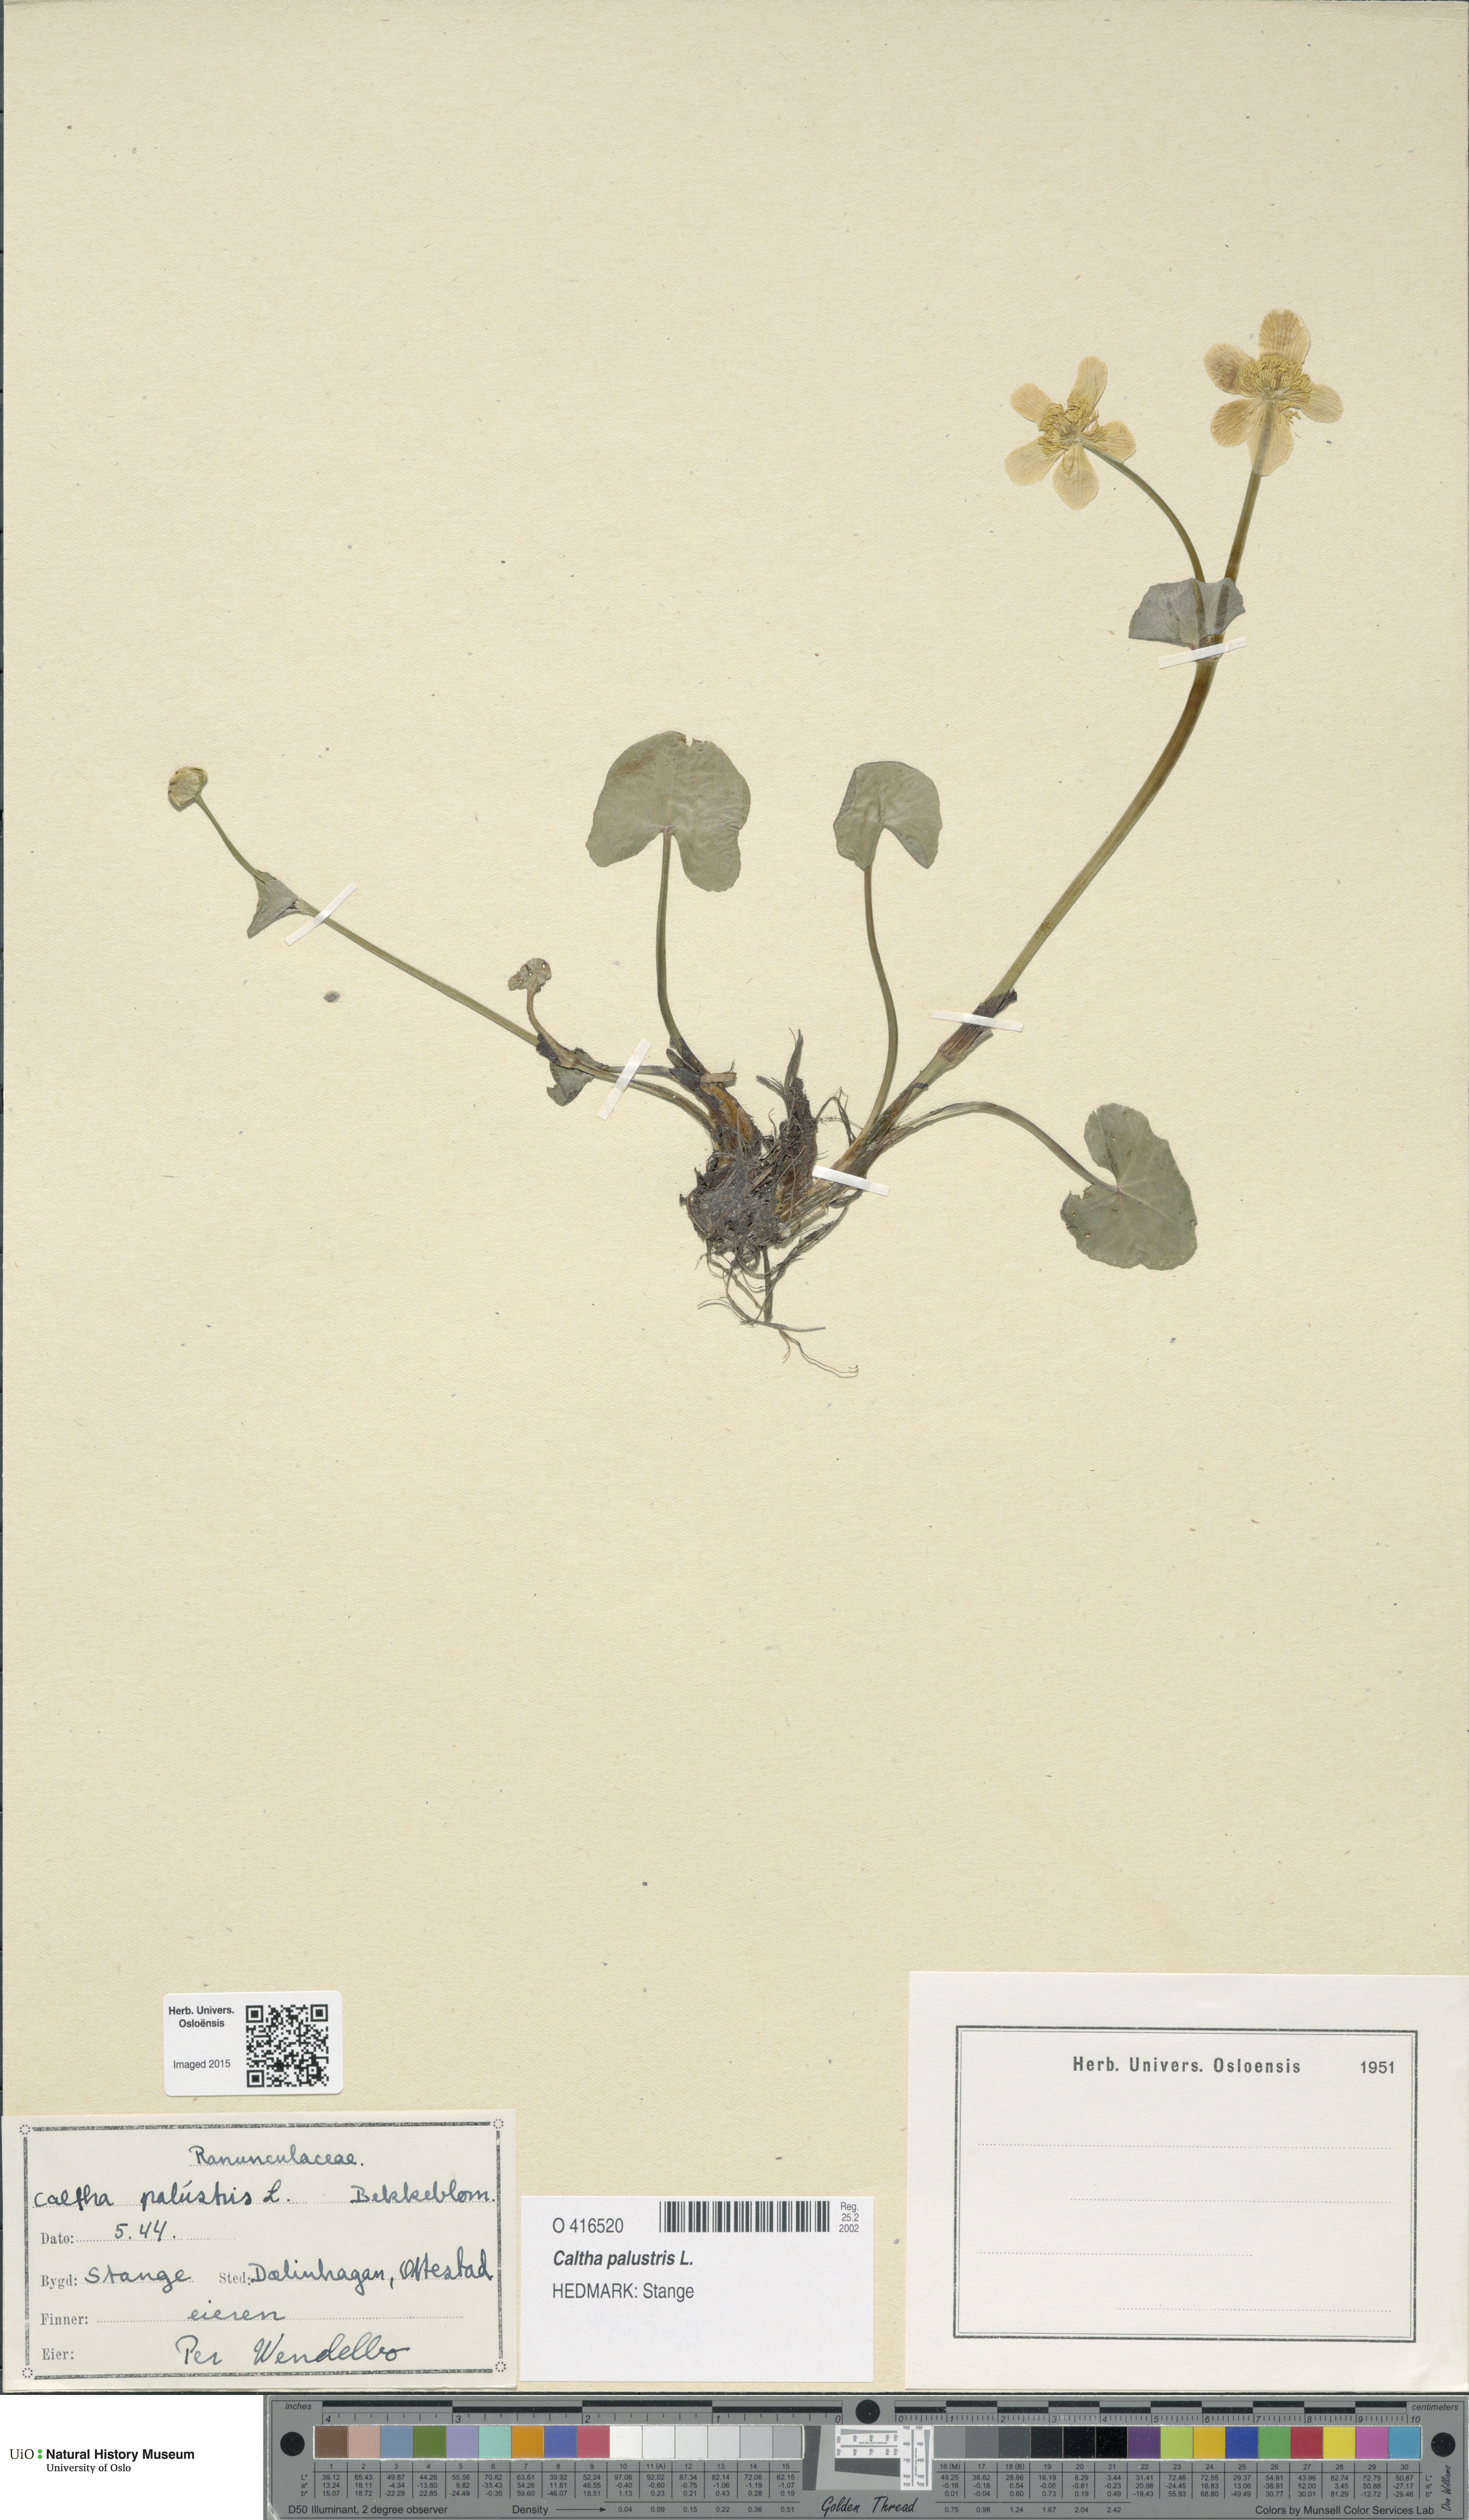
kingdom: Plantae
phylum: Tracheophyta
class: Magnoliopsida
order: Ranunculales
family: Ranunculaceae
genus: Caltha
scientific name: Caltha palustris
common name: Marsh marigold
